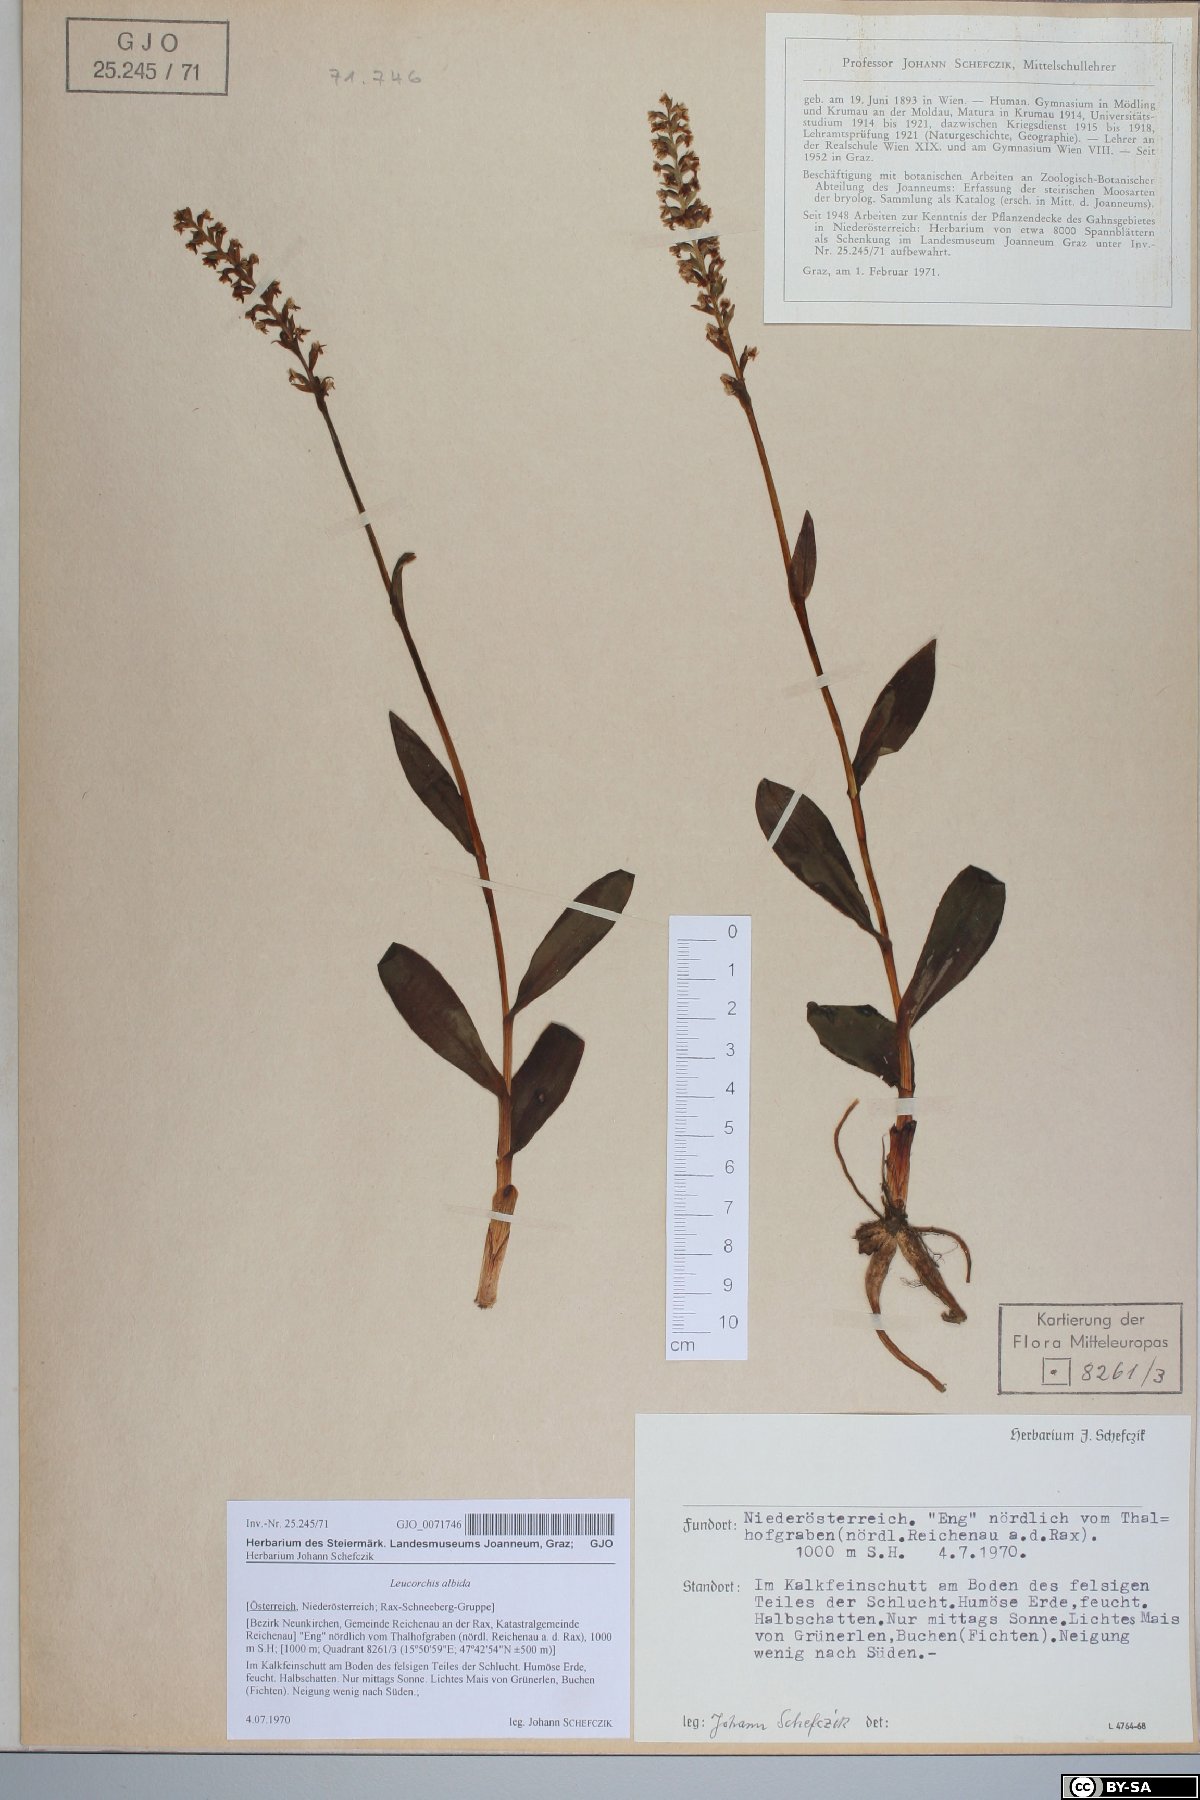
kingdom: Plantae
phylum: Tracheophyta
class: Liliopsida
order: Asparagales
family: Orchidaceae
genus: Pseudorchis
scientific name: Pseudorchis albida
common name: Small-white orchid
